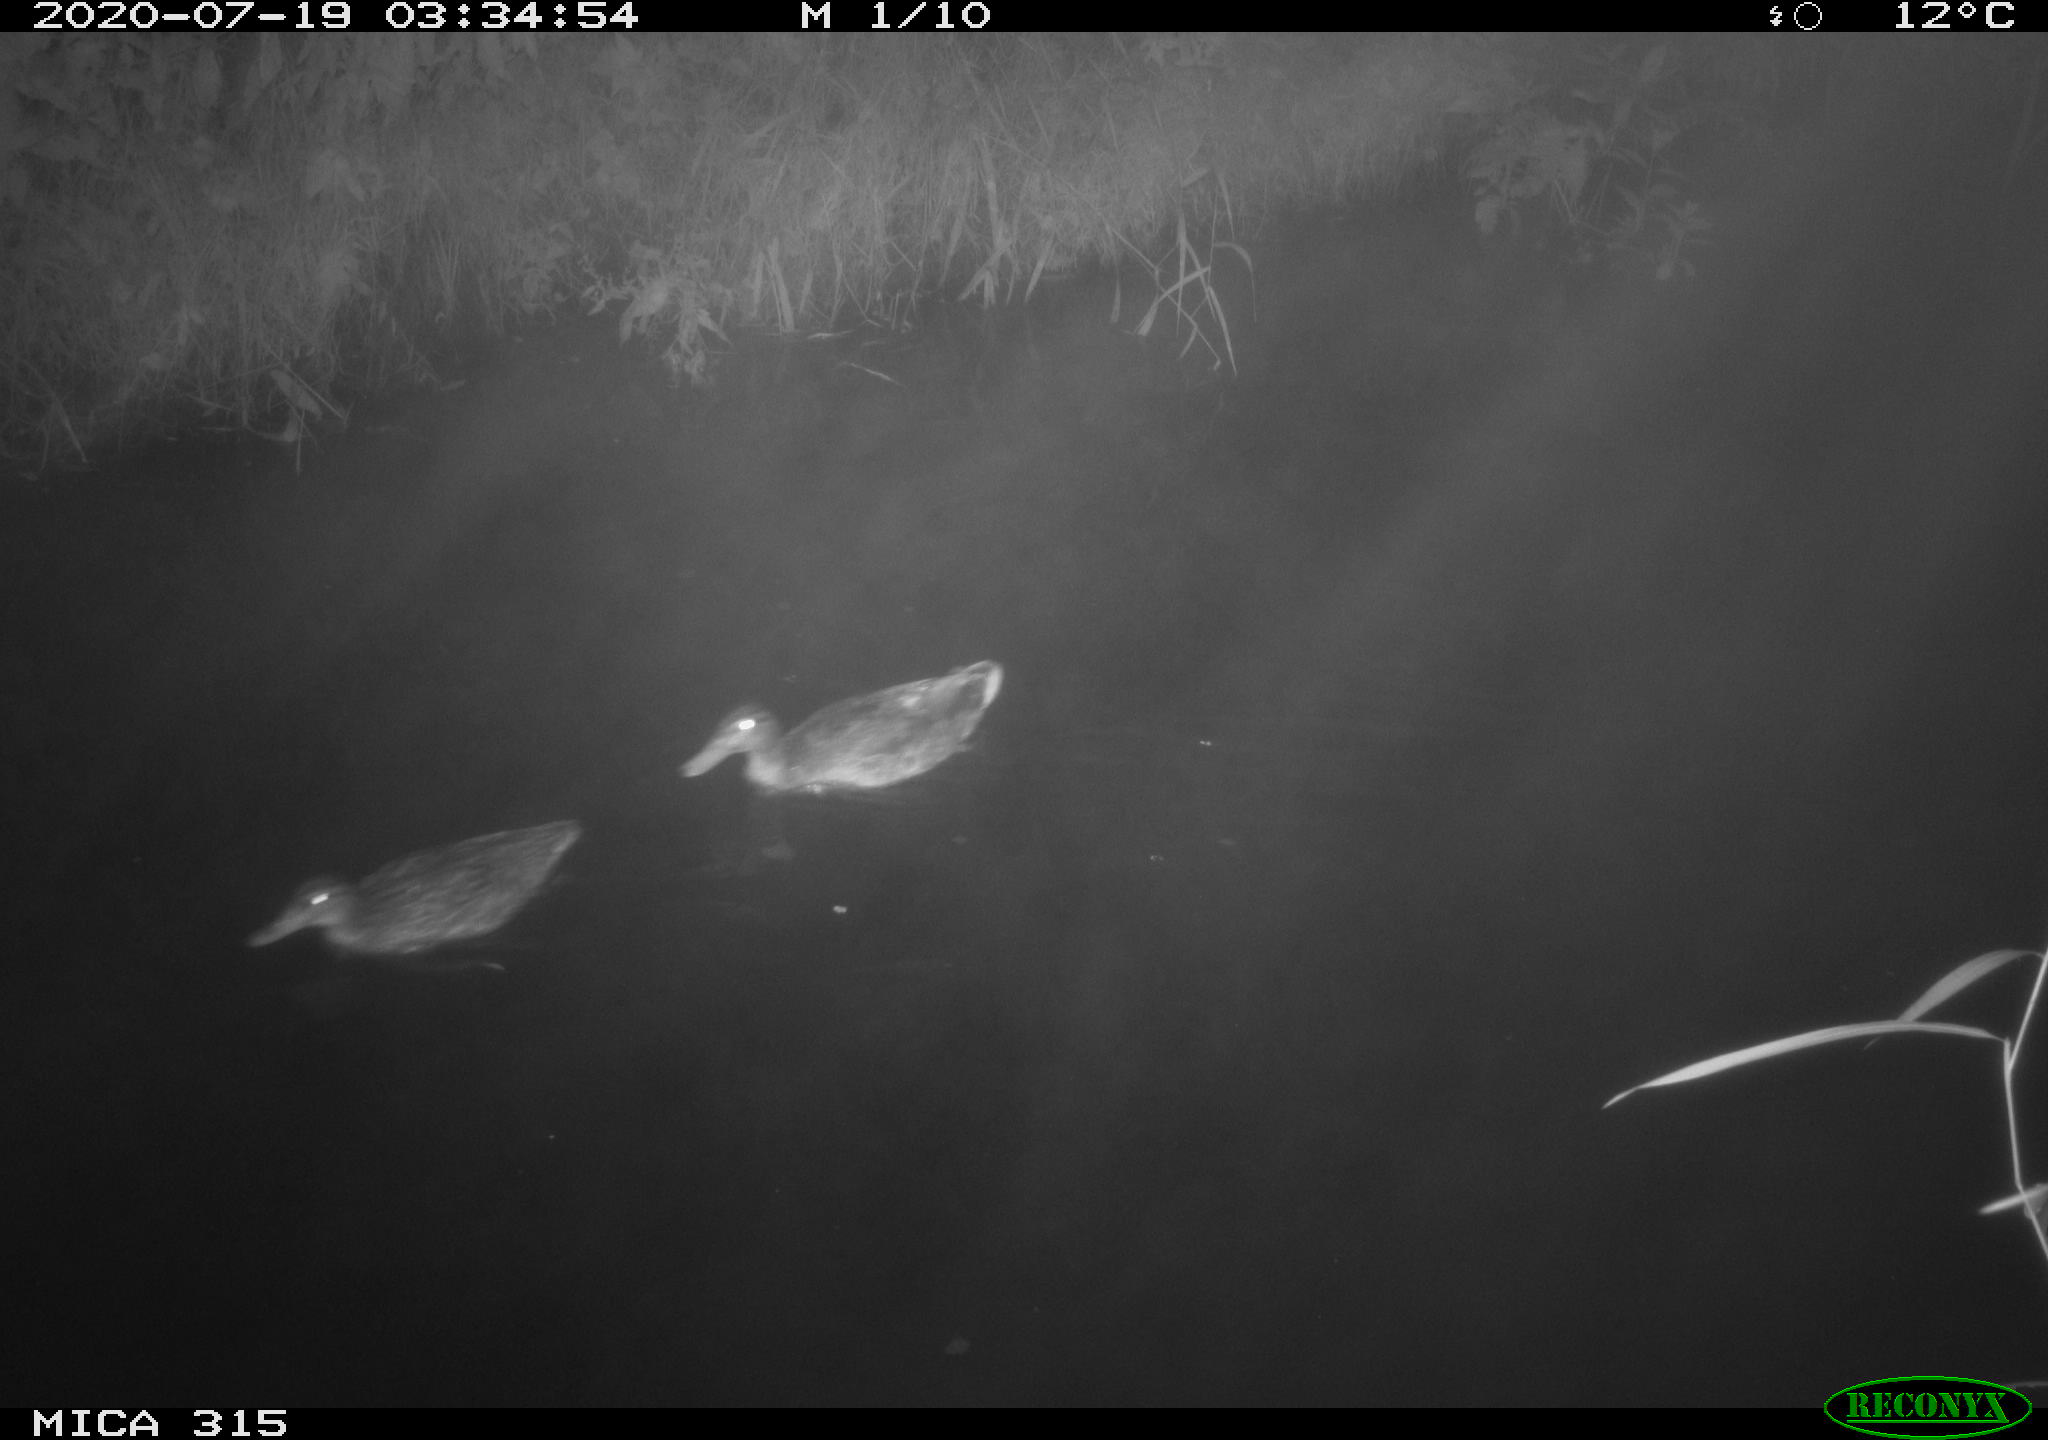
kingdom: Animalia
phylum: Chordata
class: Aves
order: Anseriformes
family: Anatidae
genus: Anas
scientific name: Anas platyrhynchos
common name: Mallard
